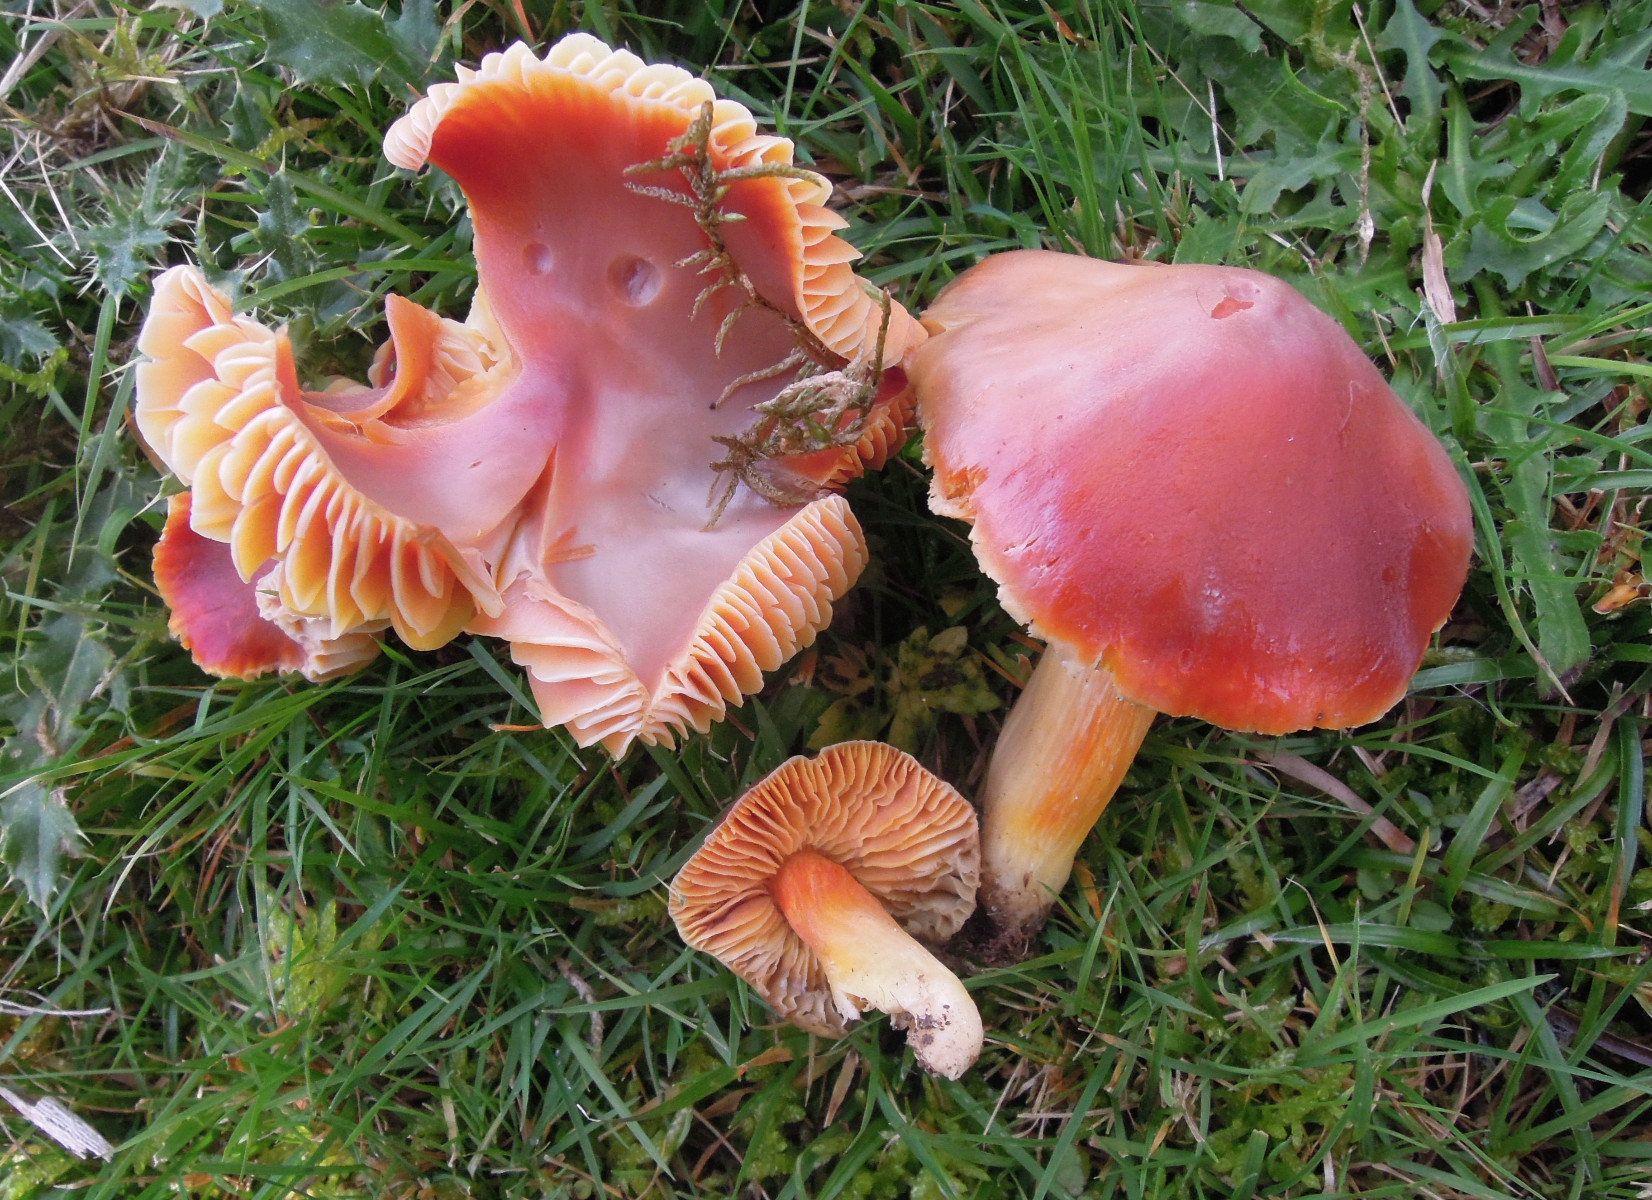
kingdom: Fungi
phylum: Basidiomycota
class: Agaricomycetes
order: Agaricales
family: Hygrophoraceae
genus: Hygrocybe
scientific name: Hygrocybe punicea
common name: skarlagen-vokshat
